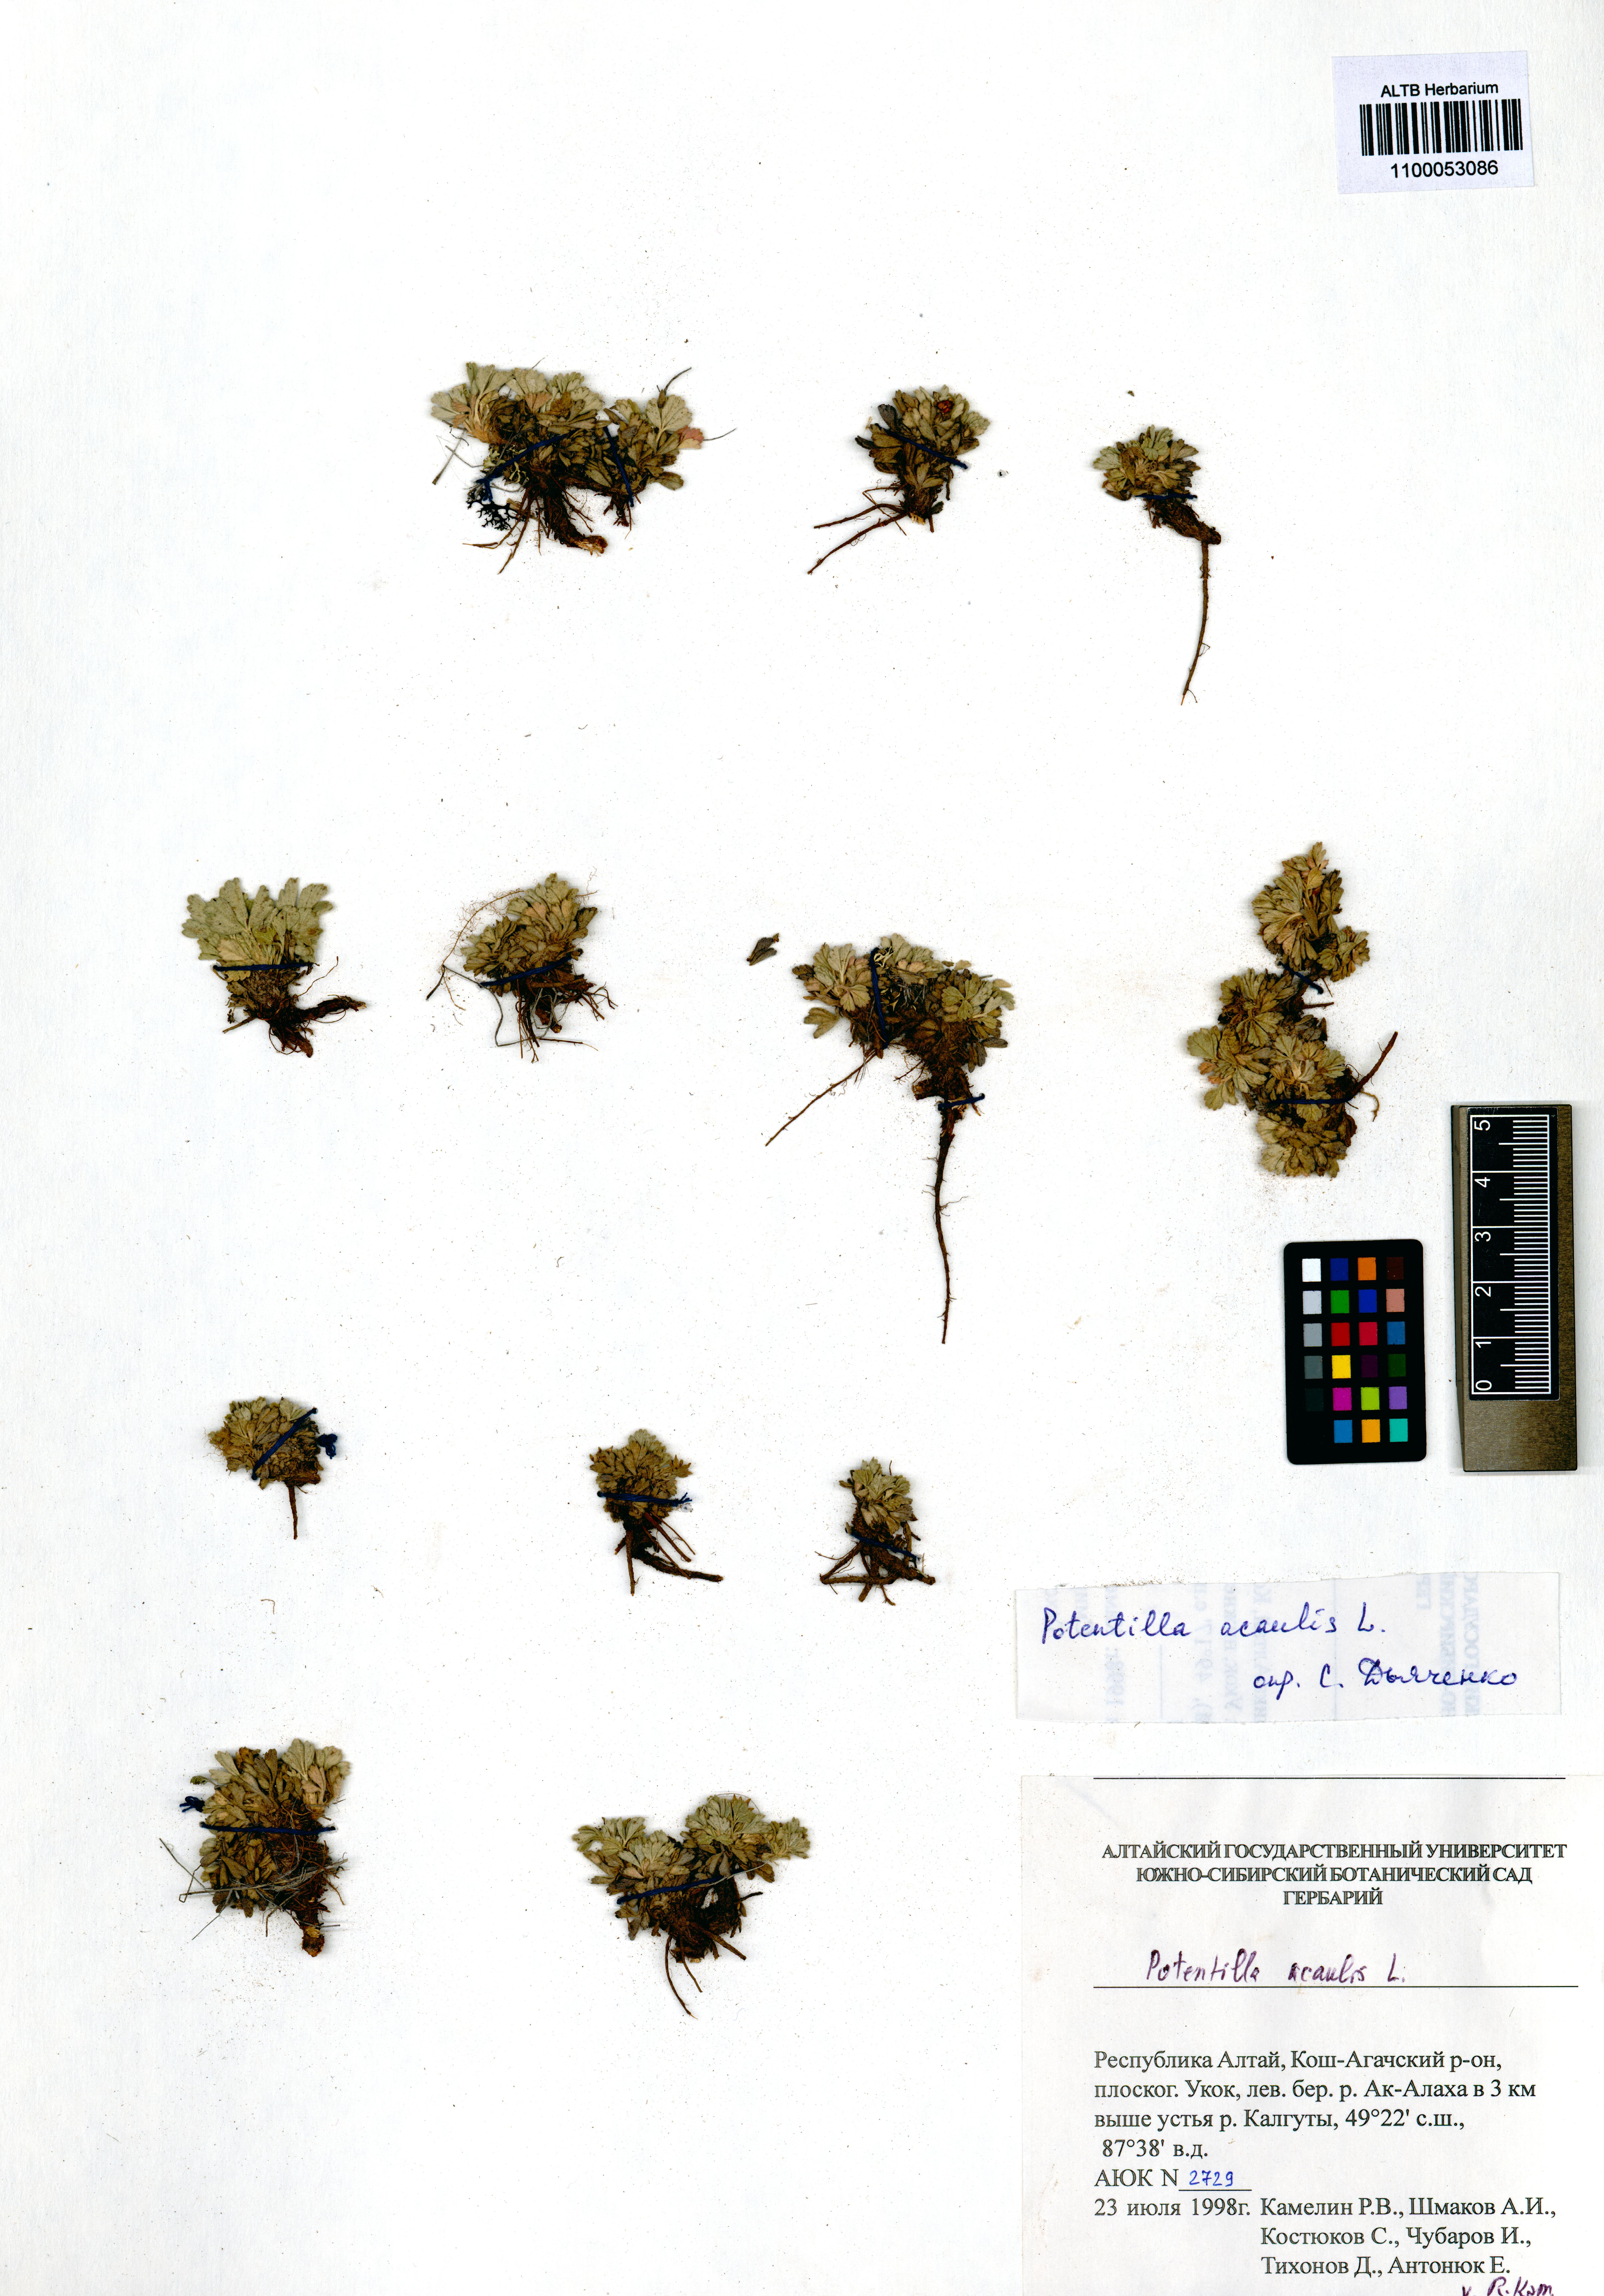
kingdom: Plantae
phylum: Tracheophyta
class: Magnoliopsida
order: Rosales
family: Rosaceae
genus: Potentilla
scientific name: Potentilla acaulis
